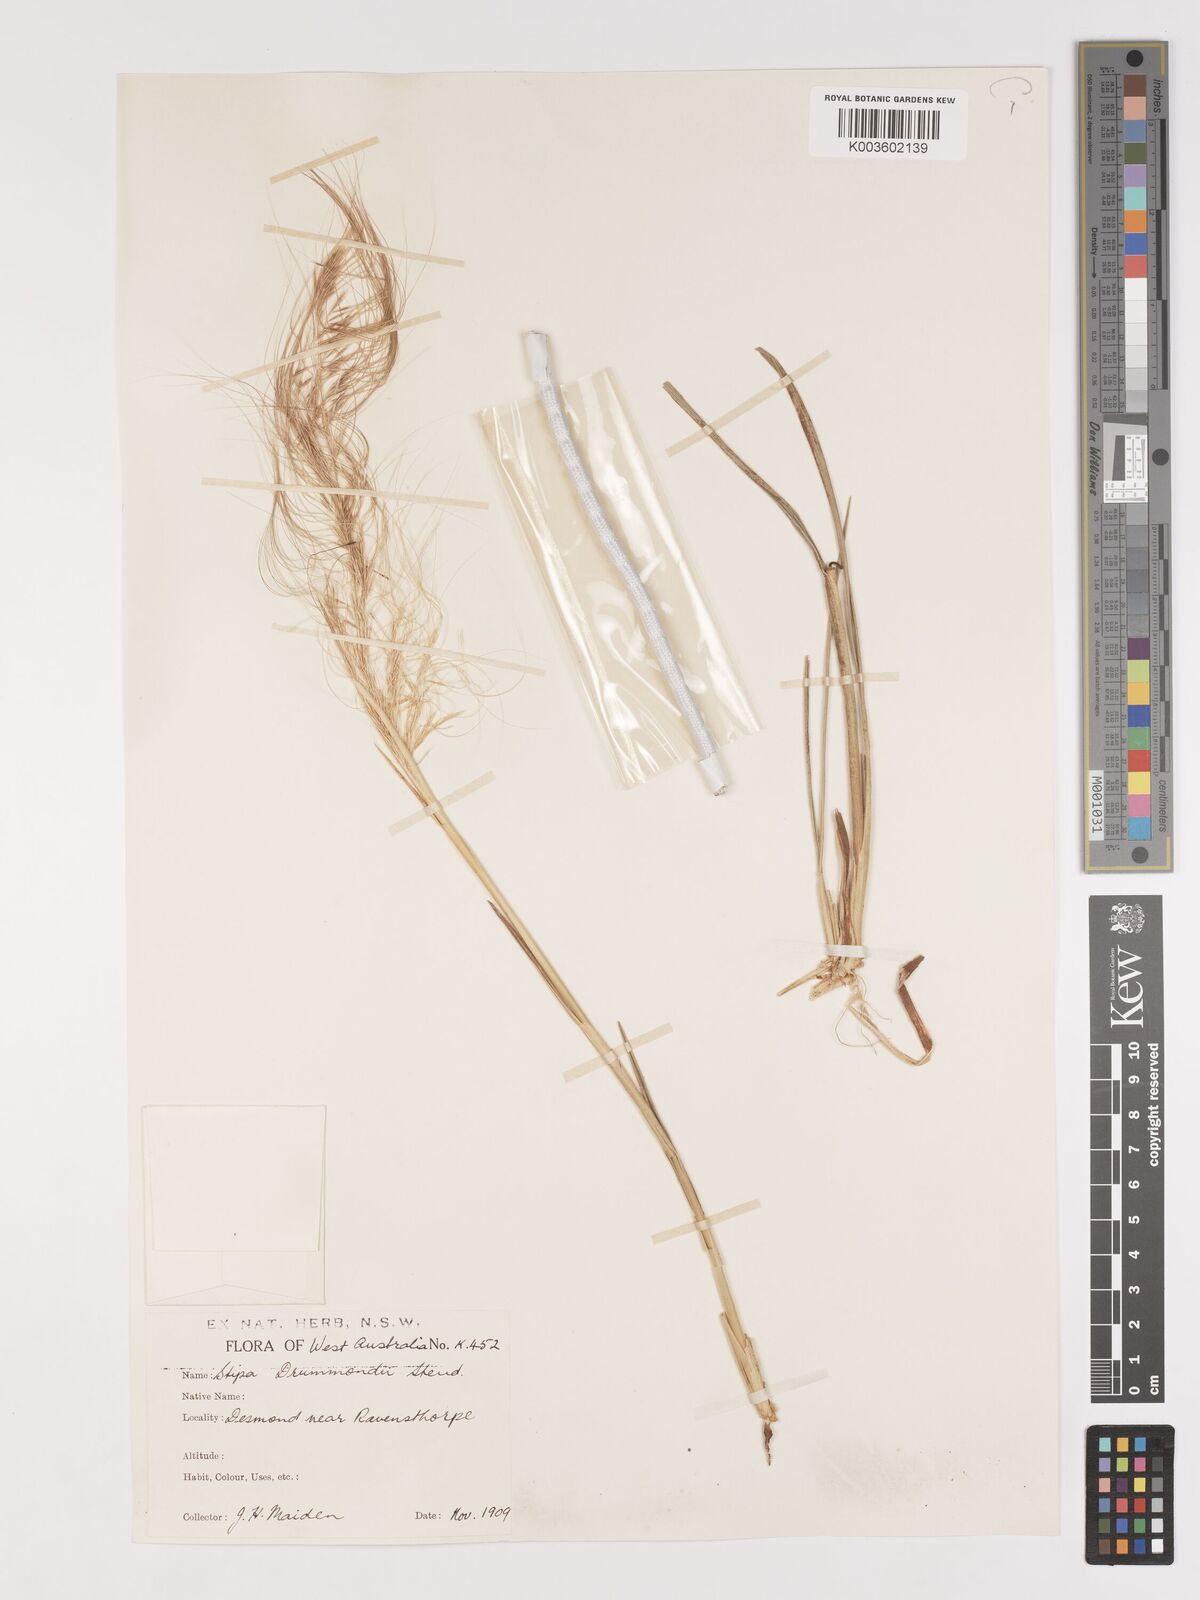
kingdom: Plantae
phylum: Tracheophyta
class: Liliopsida
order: Poales
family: Poaceae
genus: Austrostipa
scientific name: Austrostipa drummondii
